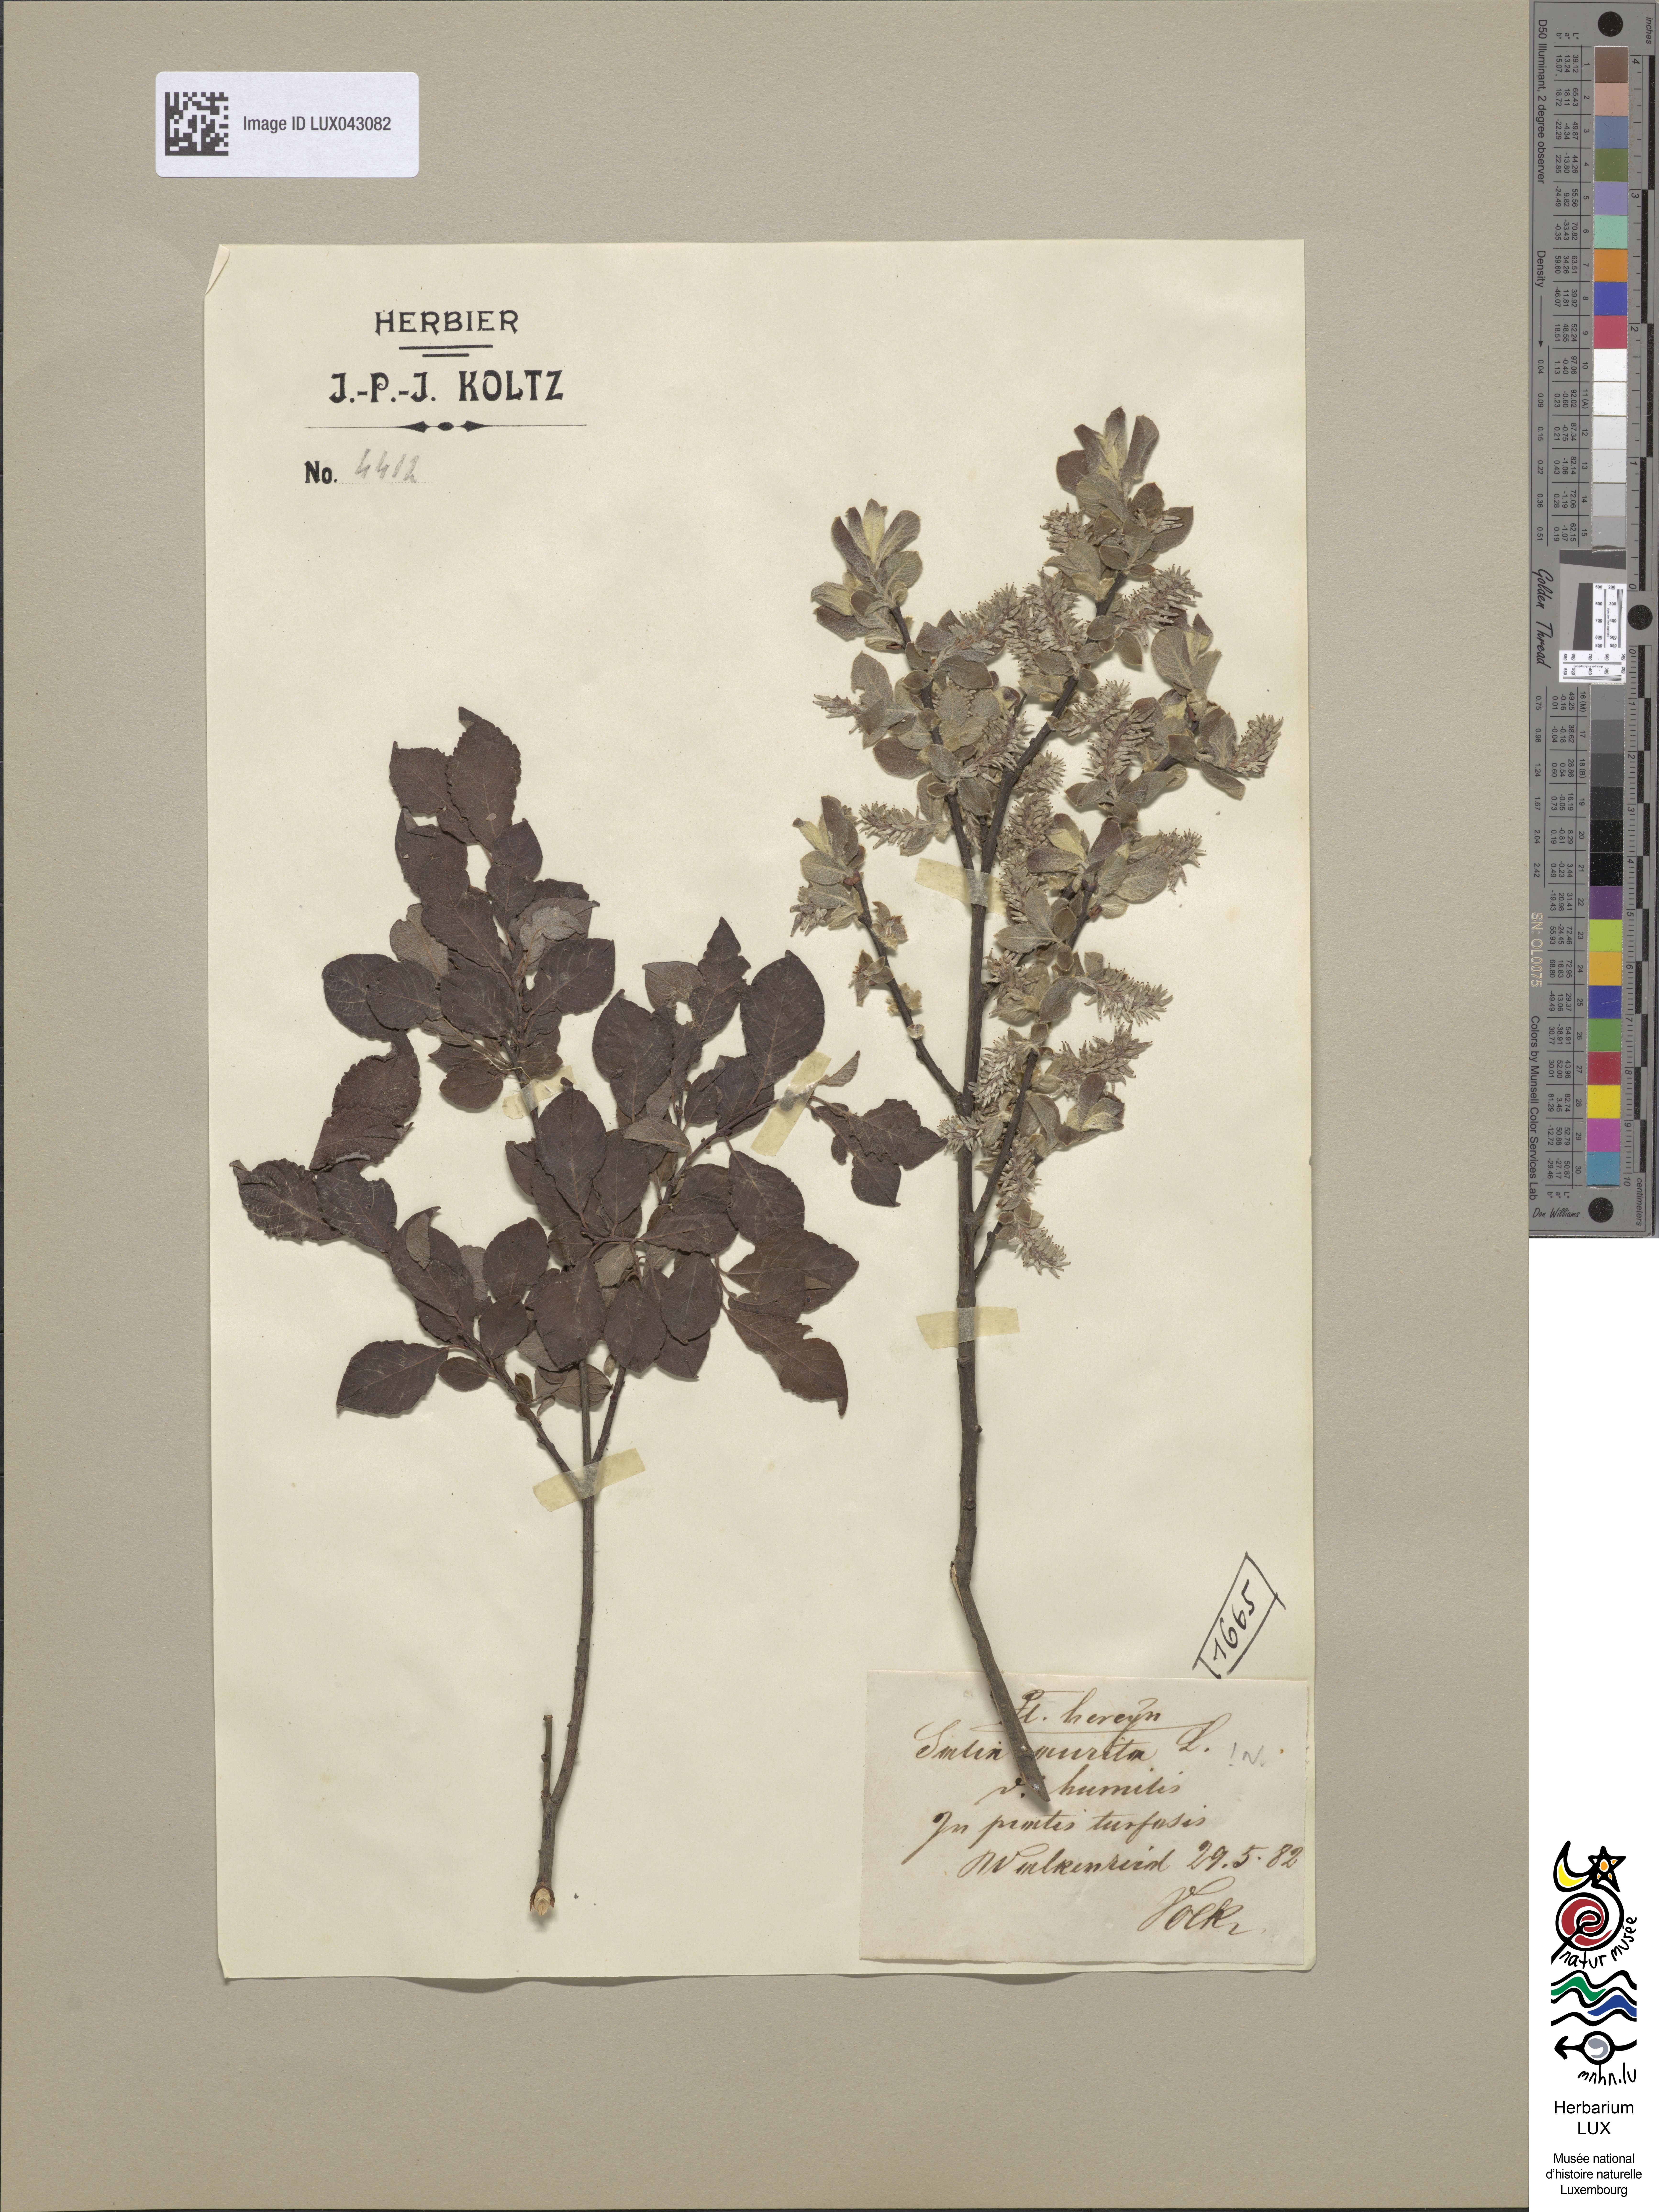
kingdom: Plantae
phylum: Tracheophyta
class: Magnoliopsida
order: Malpighiales
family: Salicaceae
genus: Salix
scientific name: Salix aurita
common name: Eared willow
